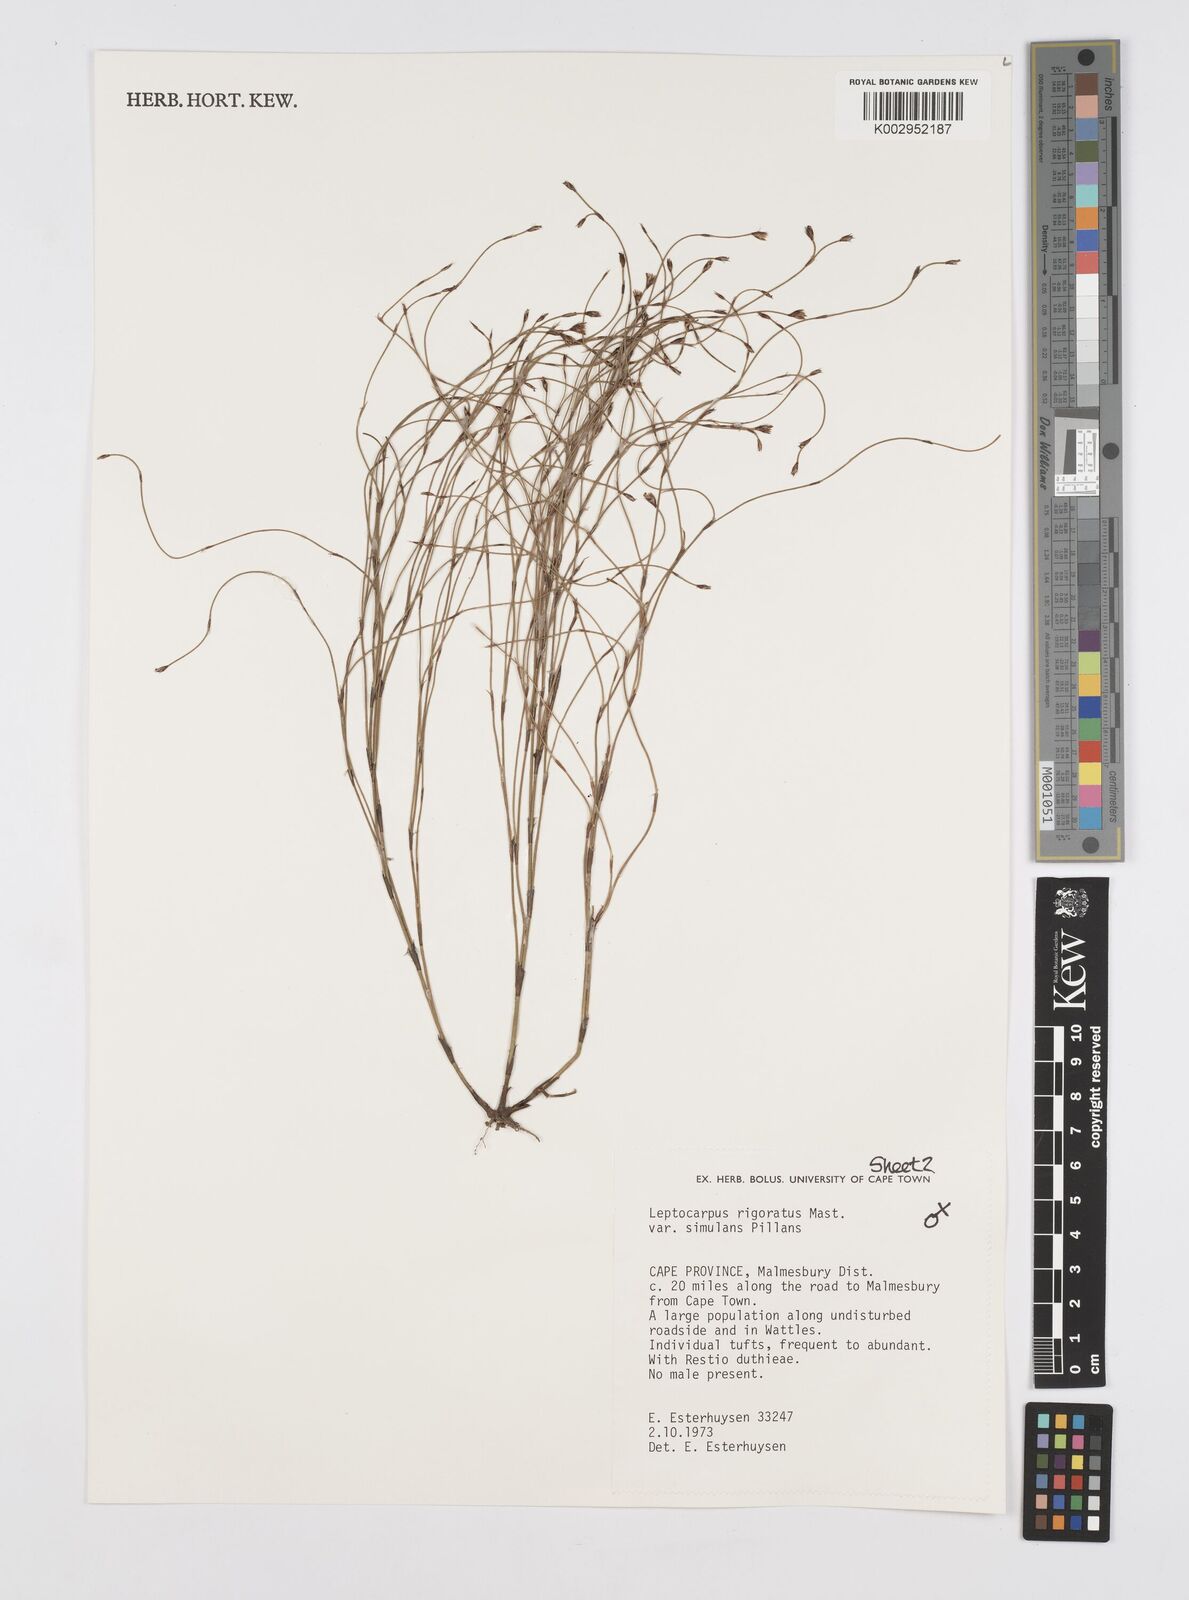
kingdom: Plantae
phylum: Tracheophyta
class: Liliopsida
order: Poales
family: Restionaceae
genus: Restio
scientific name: Restio rigoratus
